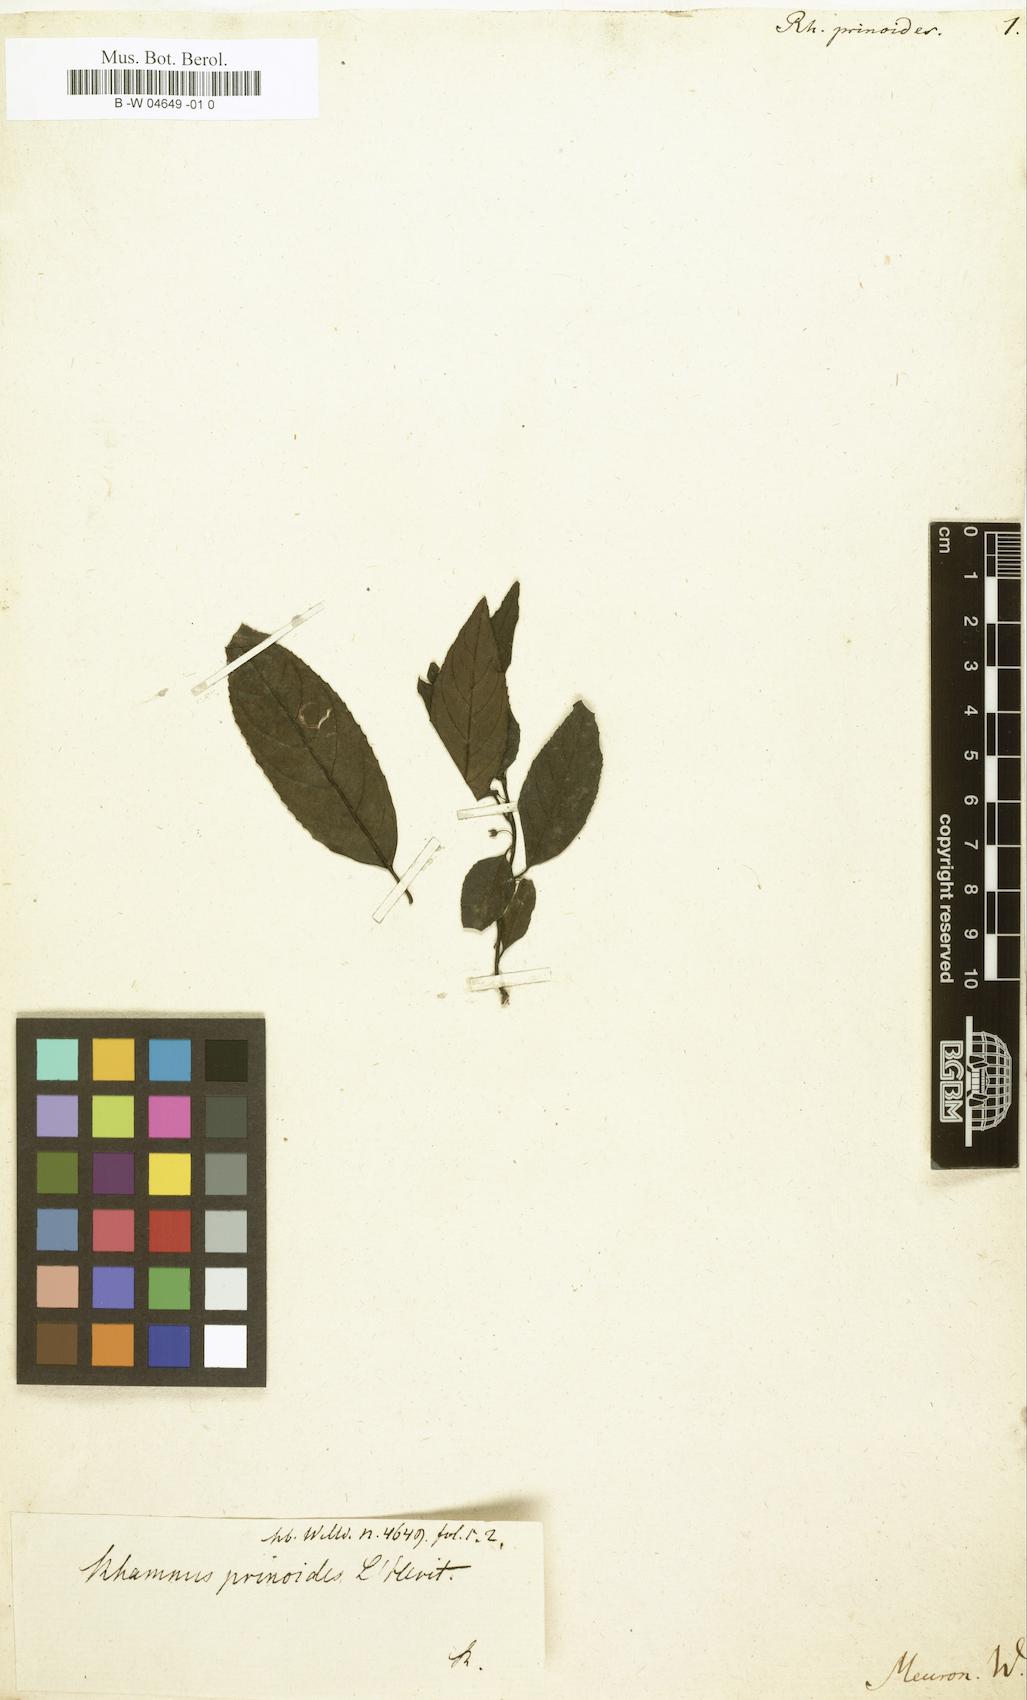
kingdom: Plantae
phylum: Tracheophyta
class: Magnoliopsida
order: Rosales
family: Rhamnaceae
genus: Rhamnus
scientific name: Rhamnus prinoides
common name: Dogwood
